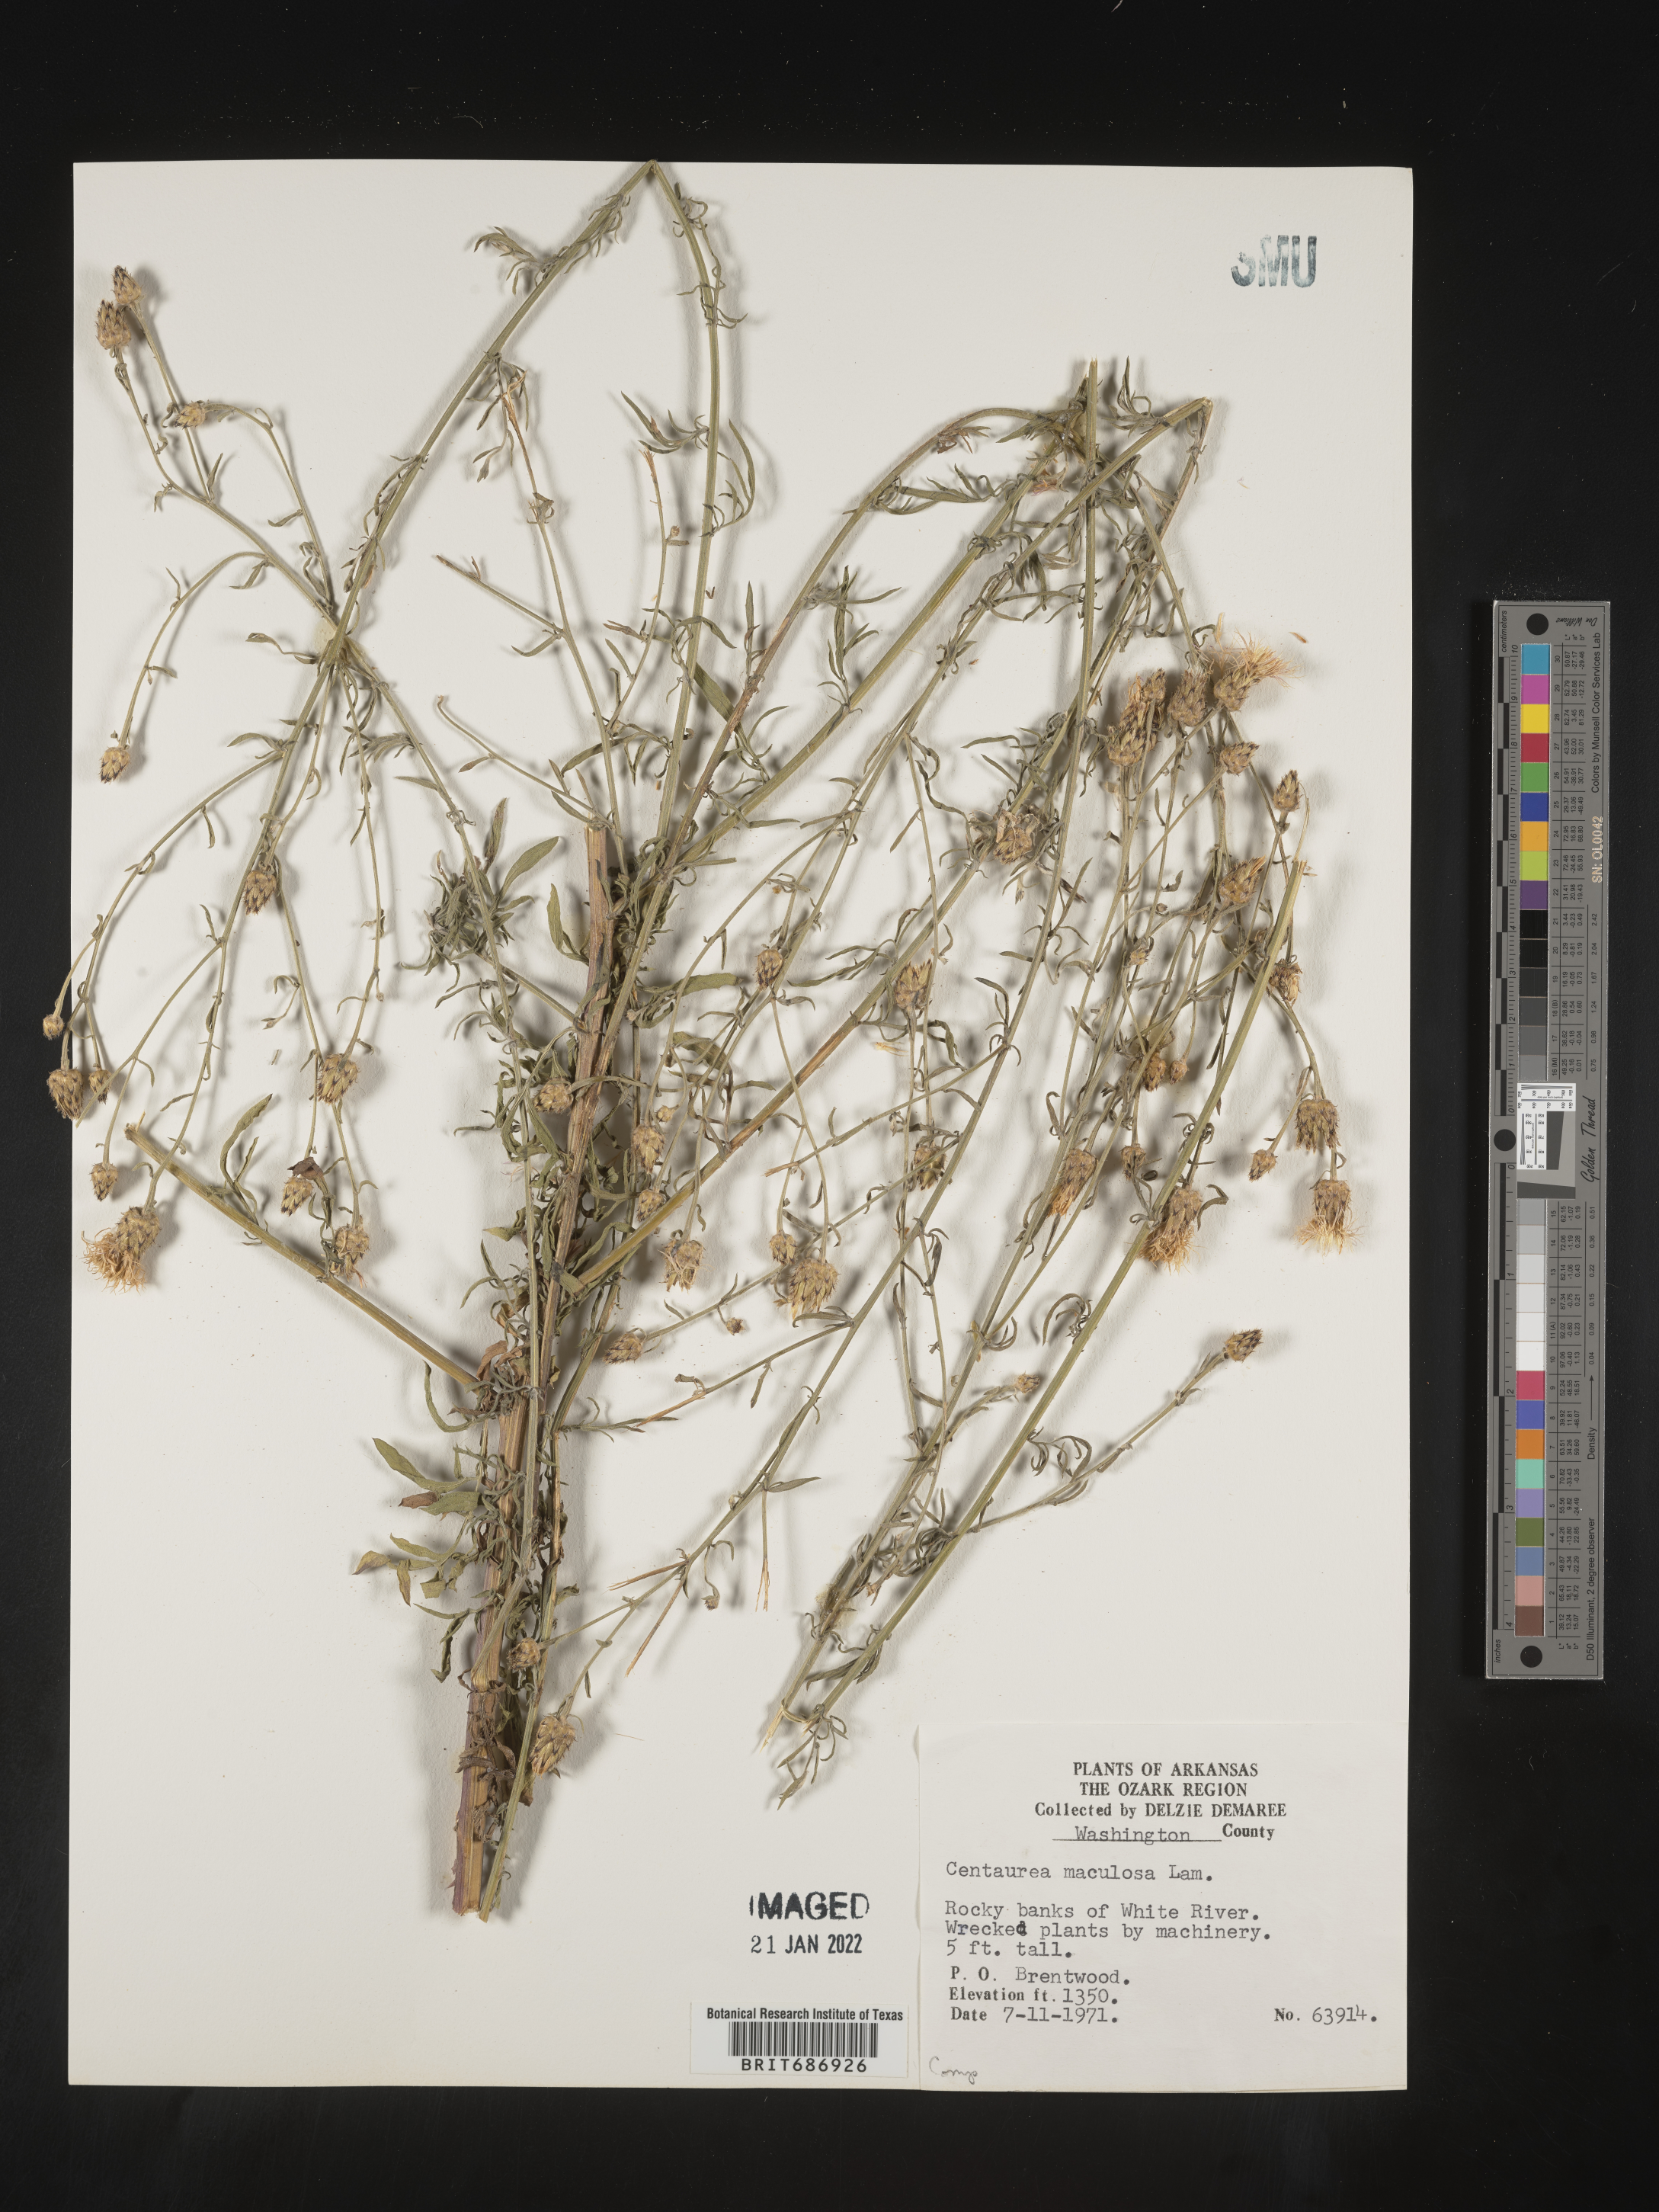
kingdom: Plantae
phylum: Tracheophyta
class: Magnoliopsida
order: Asterales
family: Asteraceae
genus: Centaurea
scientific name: Centaurea stoebe
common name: Spotted knapweed
